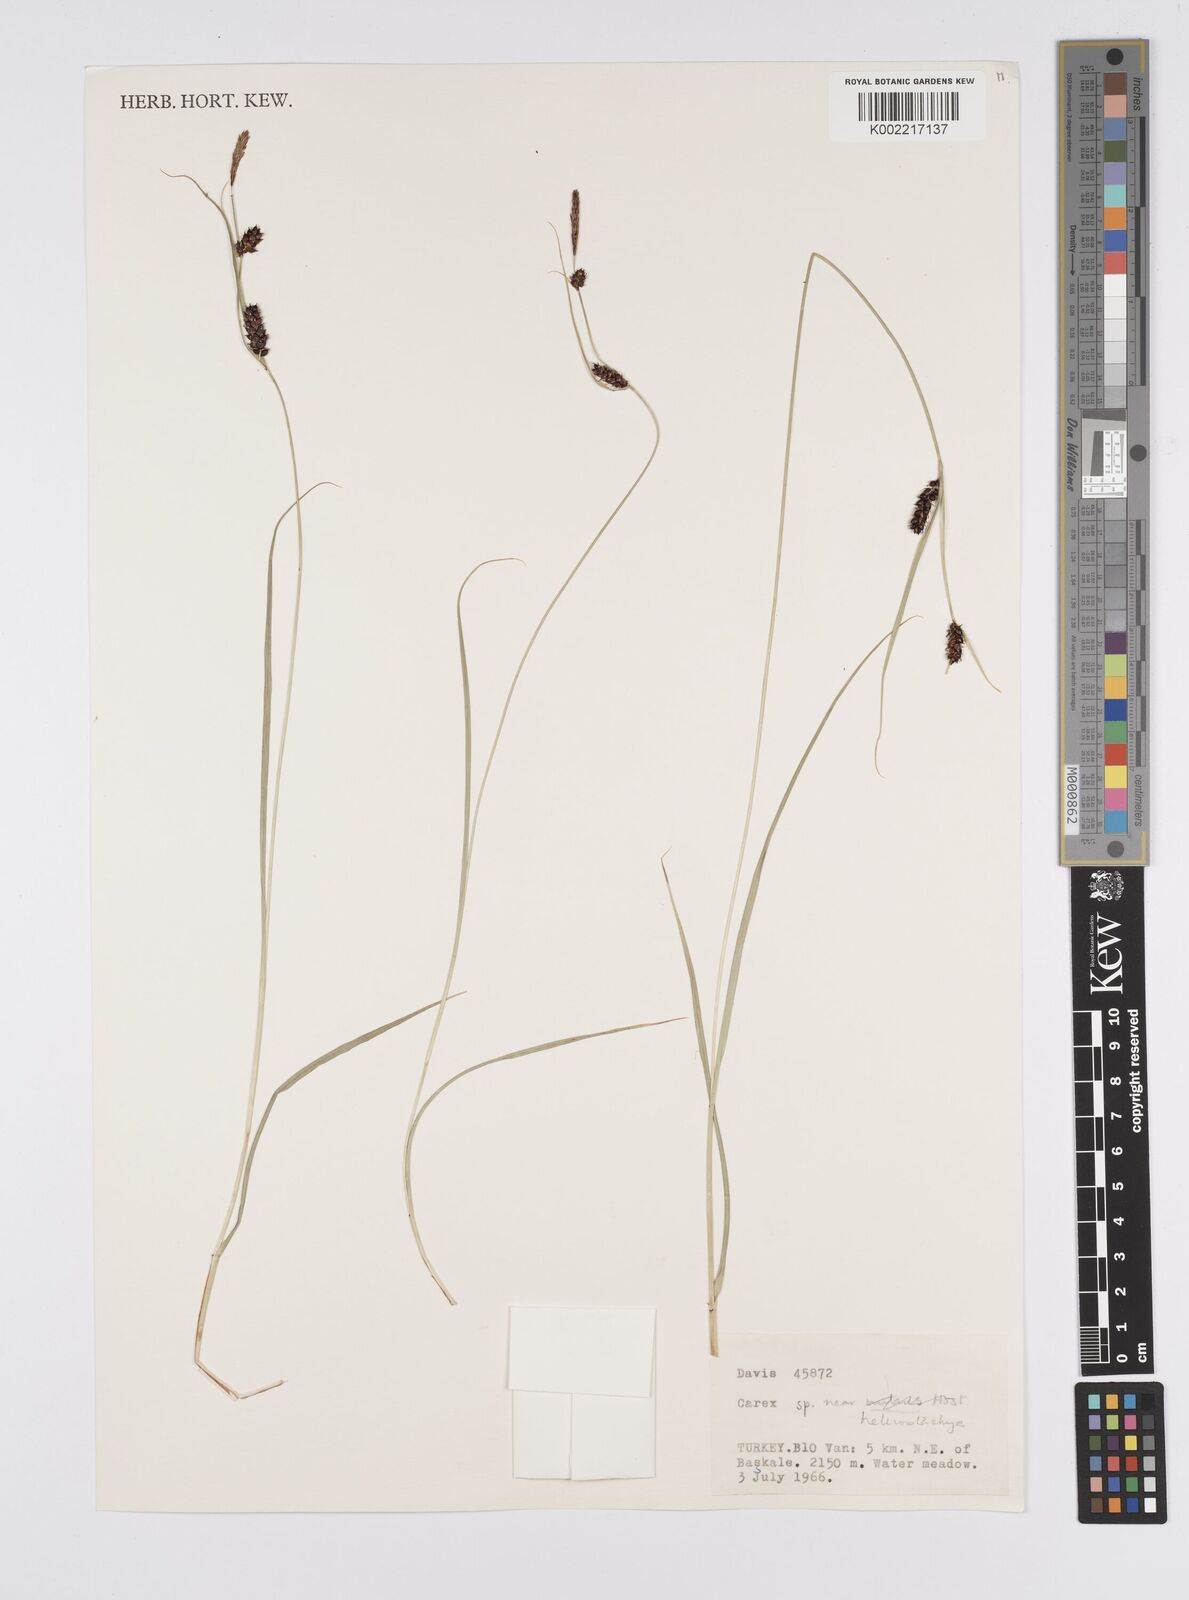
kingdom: Plantae
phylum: Tracheophyta
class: Liliopsida
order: Poales
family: Cyperaceae
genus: Carex
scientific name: Carex heterostachya
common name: Different-spike sedge
